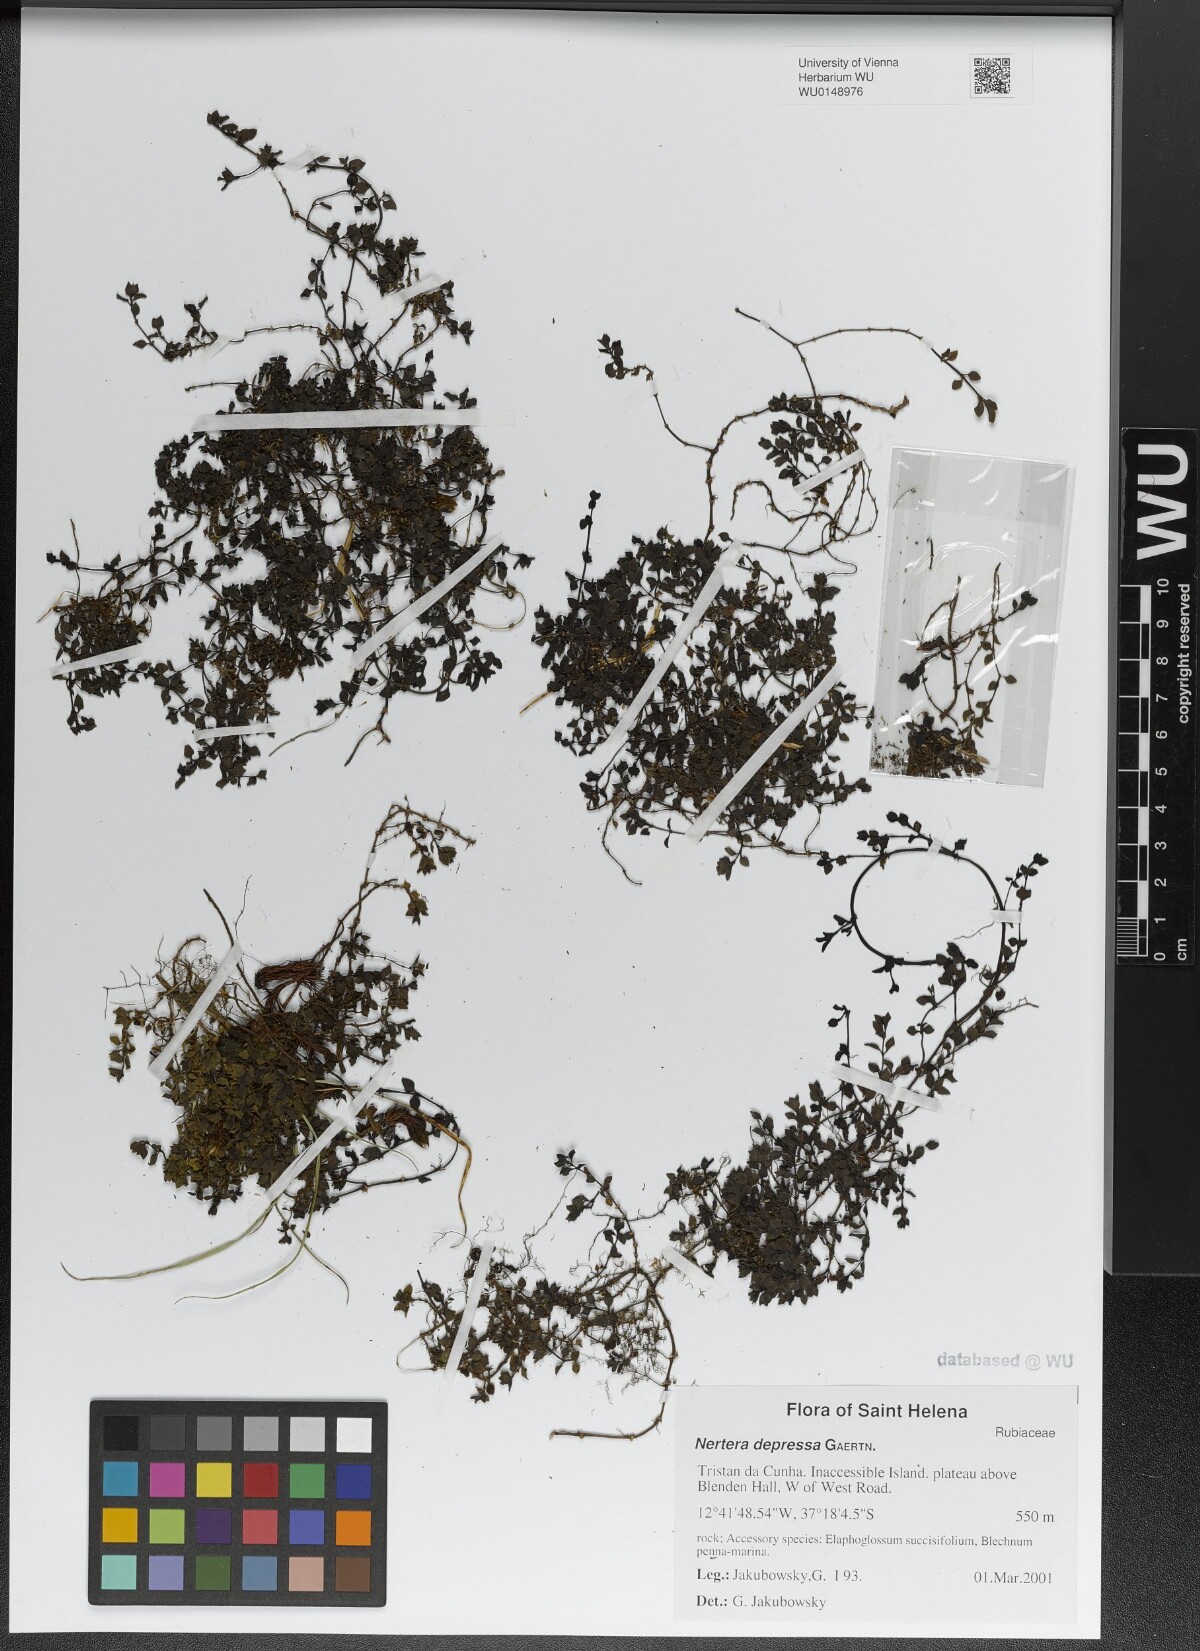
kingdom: Plantae
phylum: Tracheophyta
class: Magnoliopsida
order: Gentianales
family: Rubiaceae
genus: Nertera
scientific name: Nertera granadensis
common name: Beadplant
